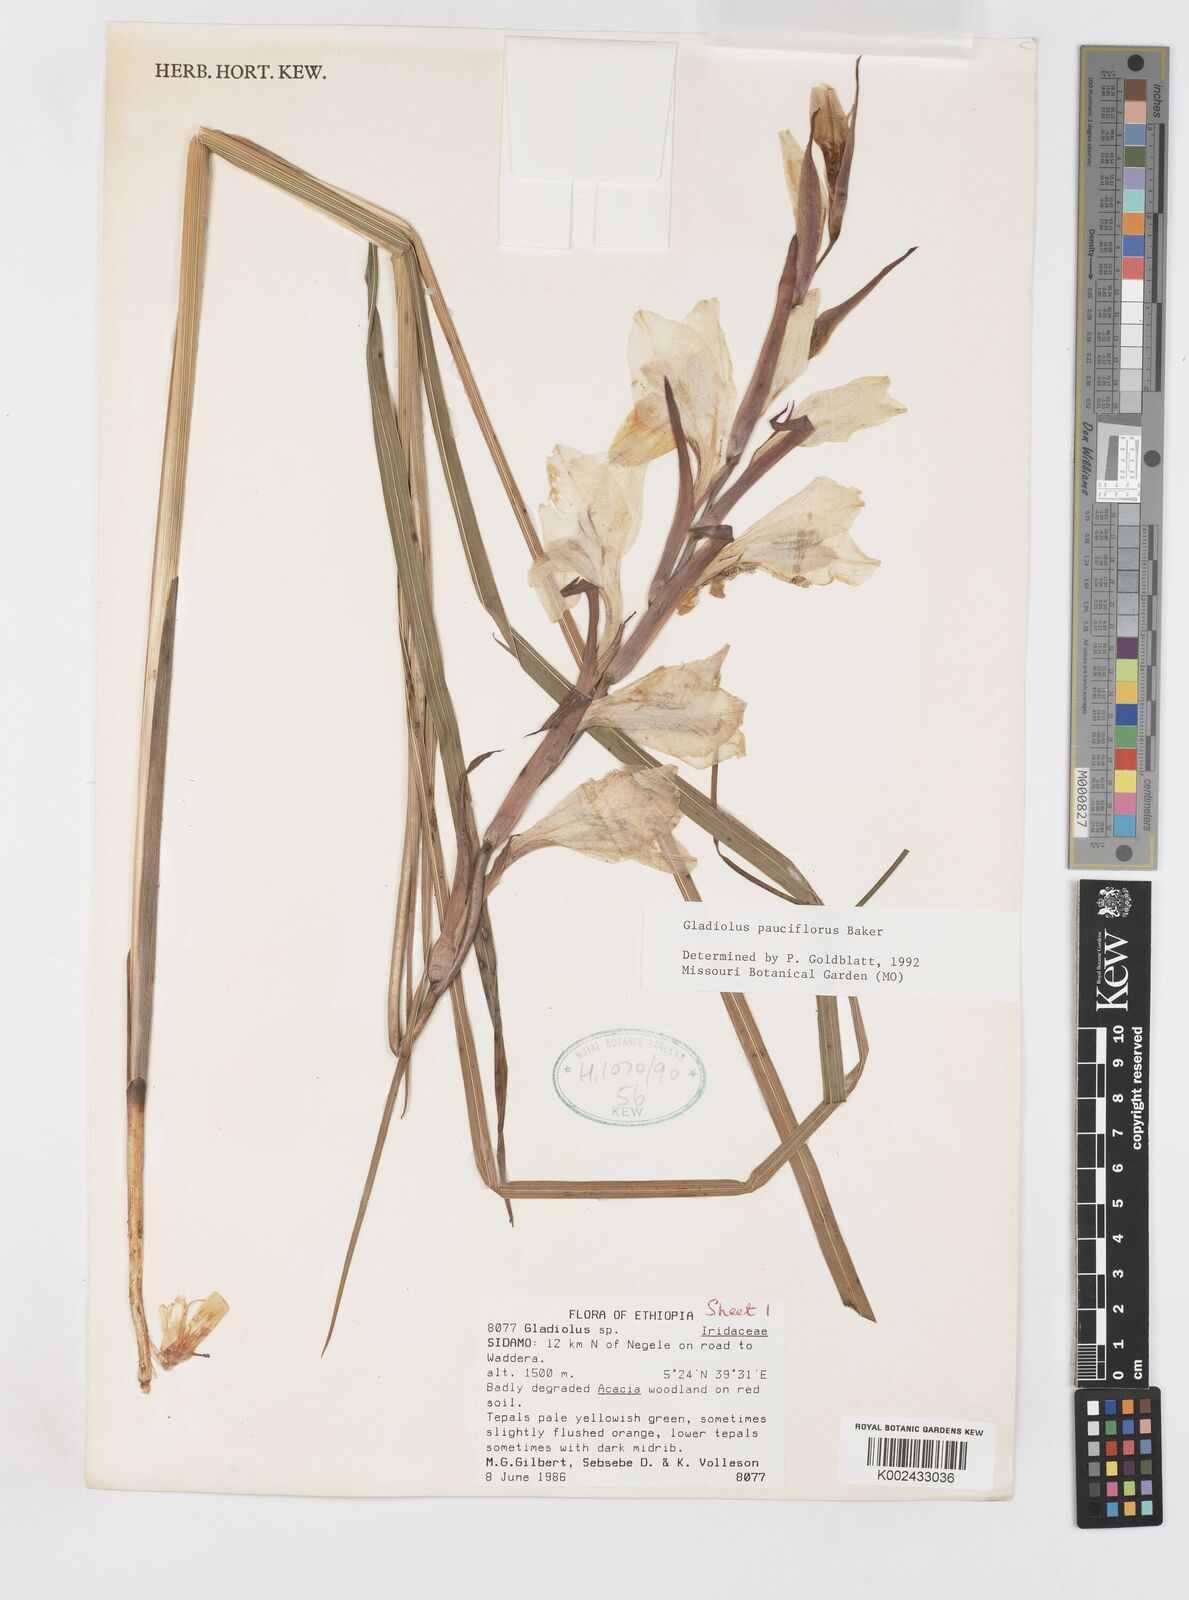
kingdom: Plantae
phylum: Tracheophyta
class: Liliopsida
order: Asparagales
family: Iridaceae
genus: Gladiolus
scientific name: Gladiolus pauciflorus
